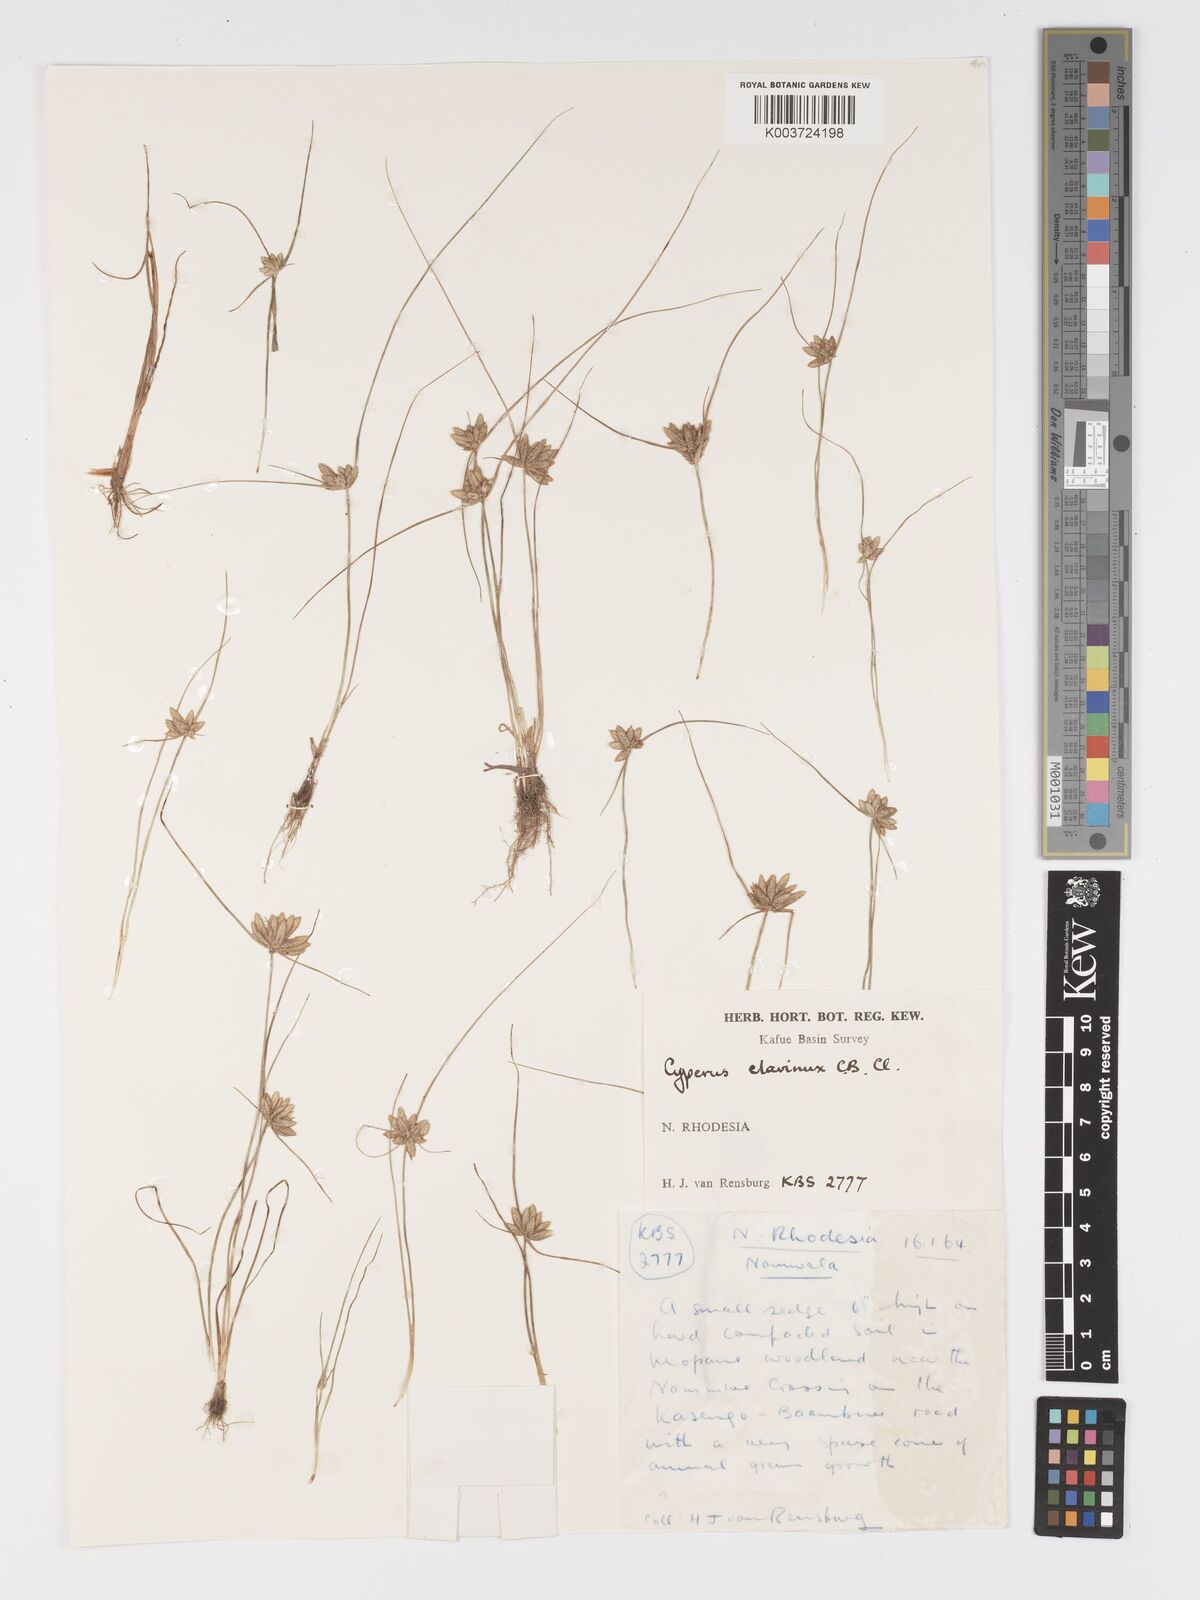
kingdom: Plantae
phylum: Tracheophyta
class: Liliopsida
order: Poales
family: Cyperaceae
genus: Cyperus
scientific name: Cyperus clavinux
